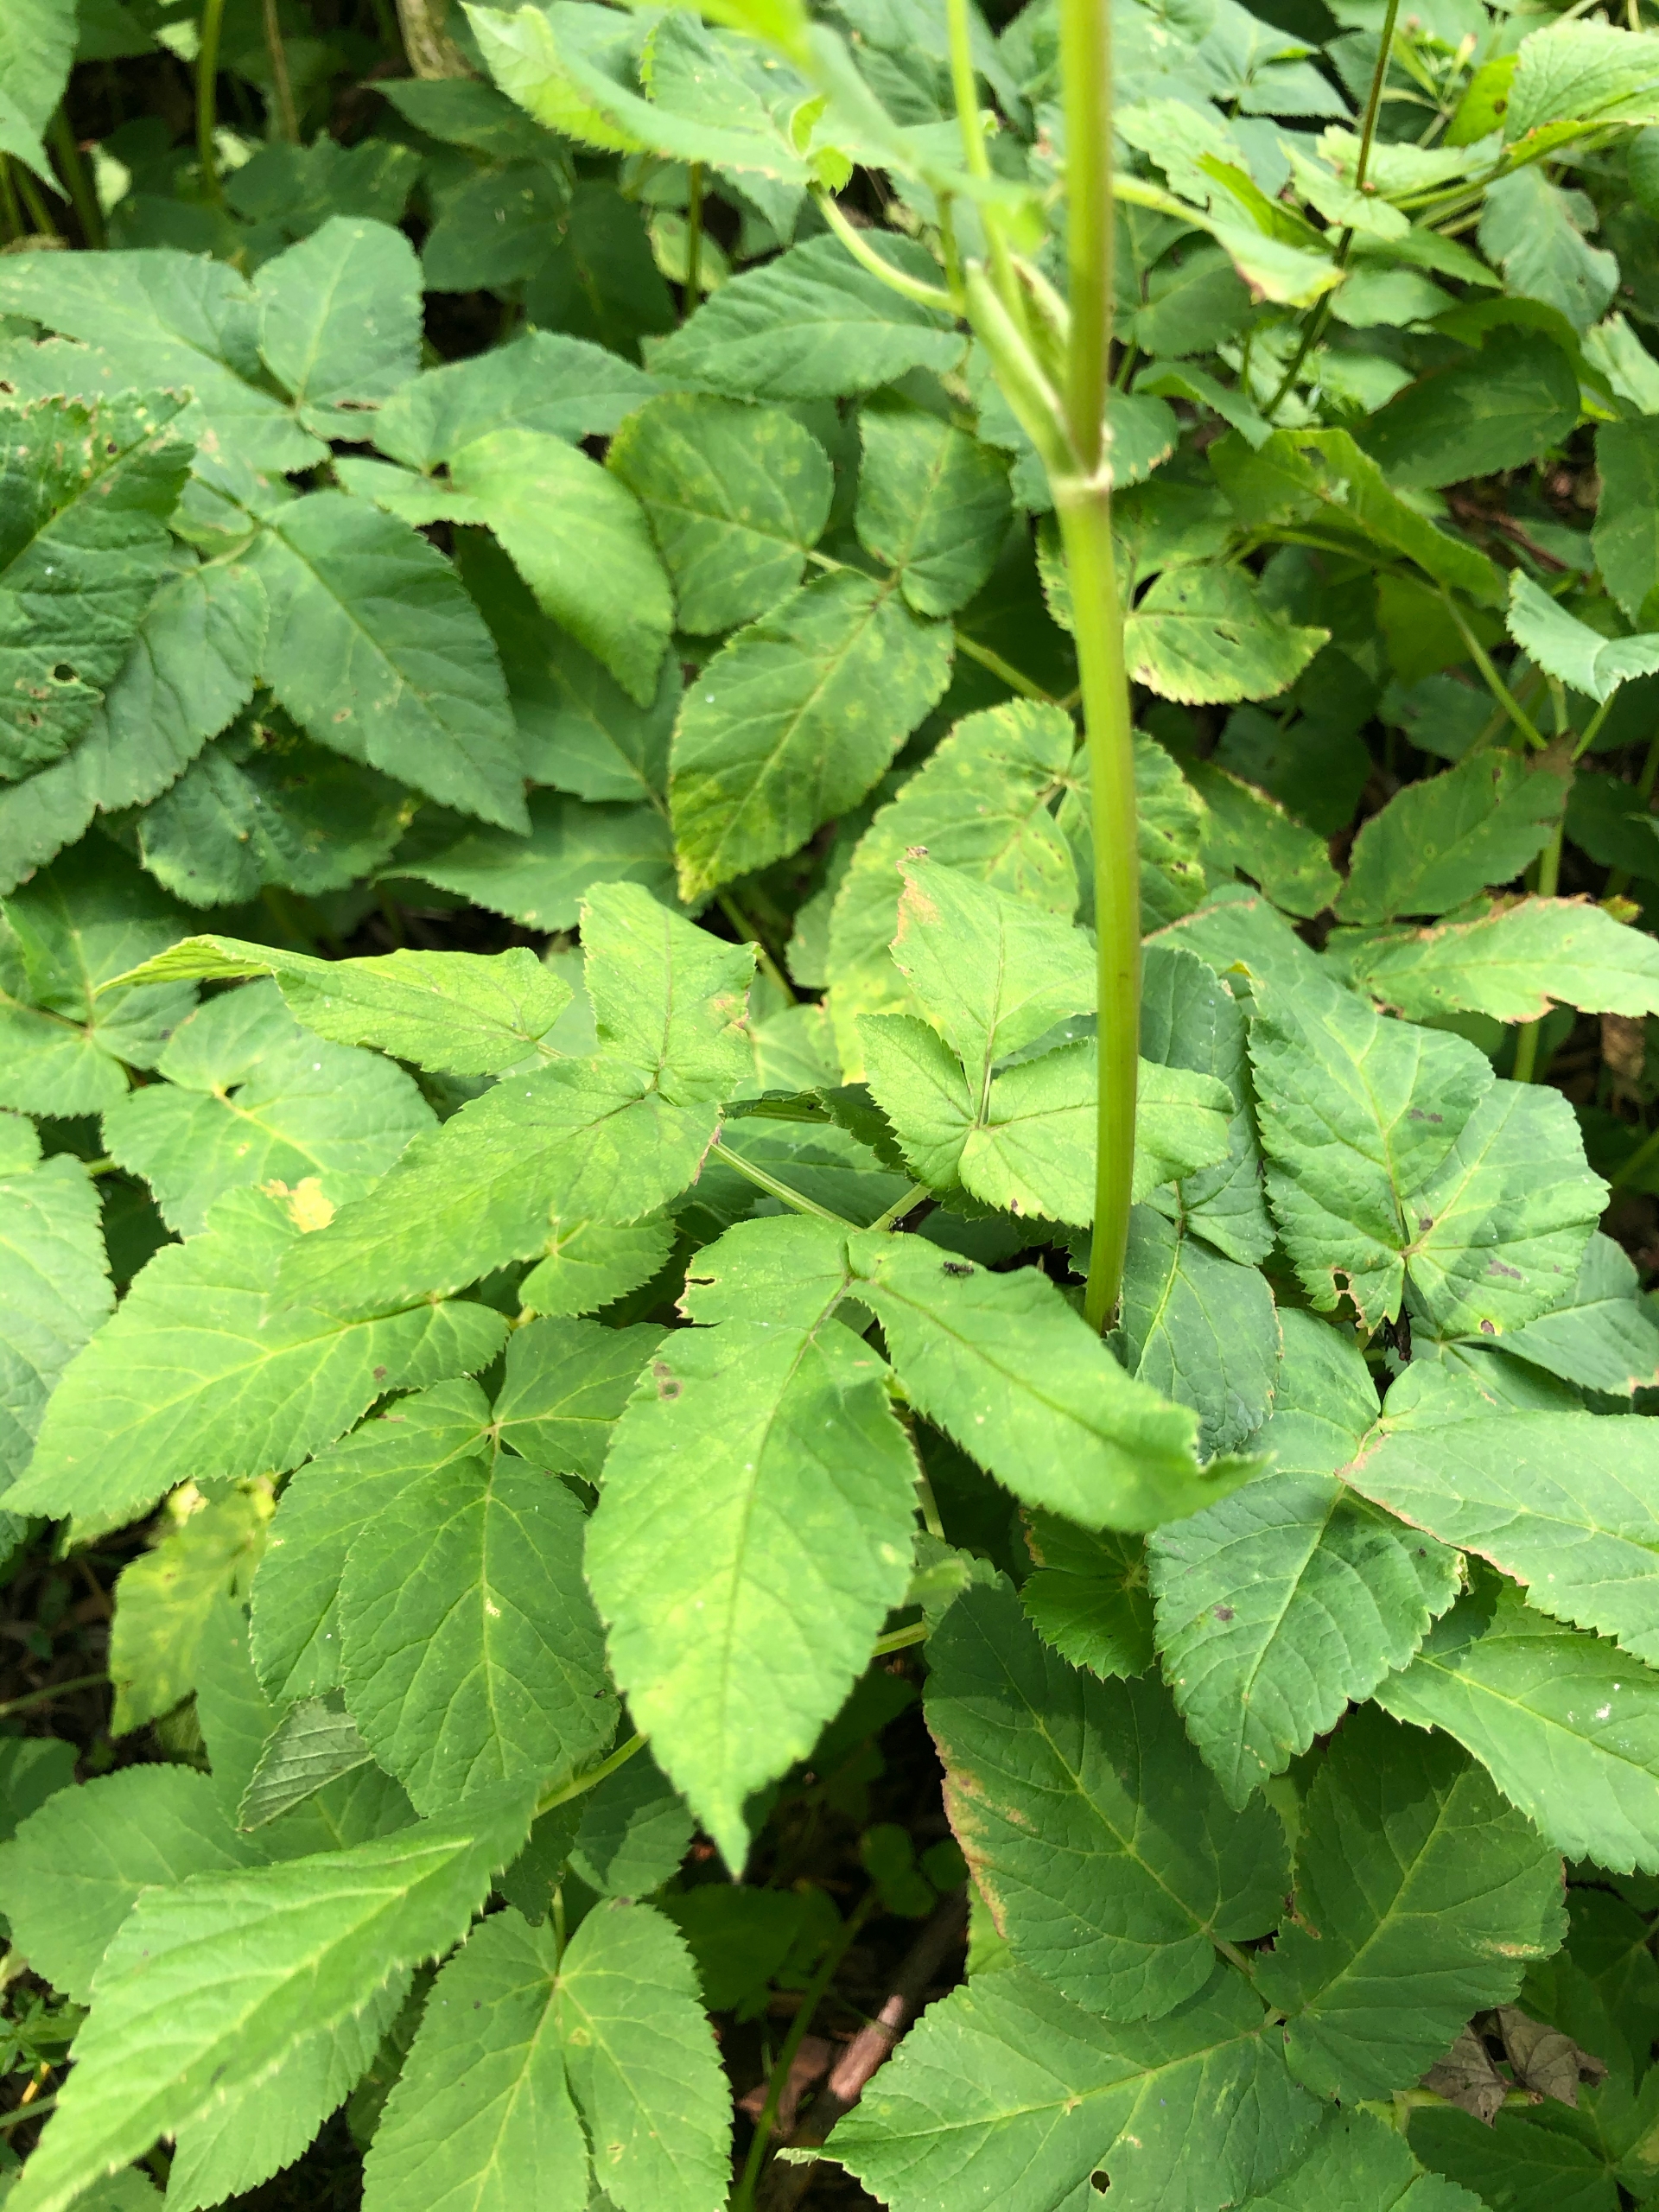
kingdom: Plantae
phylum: Tracheophyta
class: Magnoliopsida
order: Apiales
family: Apiaceae
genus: Aegopodium
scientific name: Aegopodium podagraria
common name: Skvalderkål
